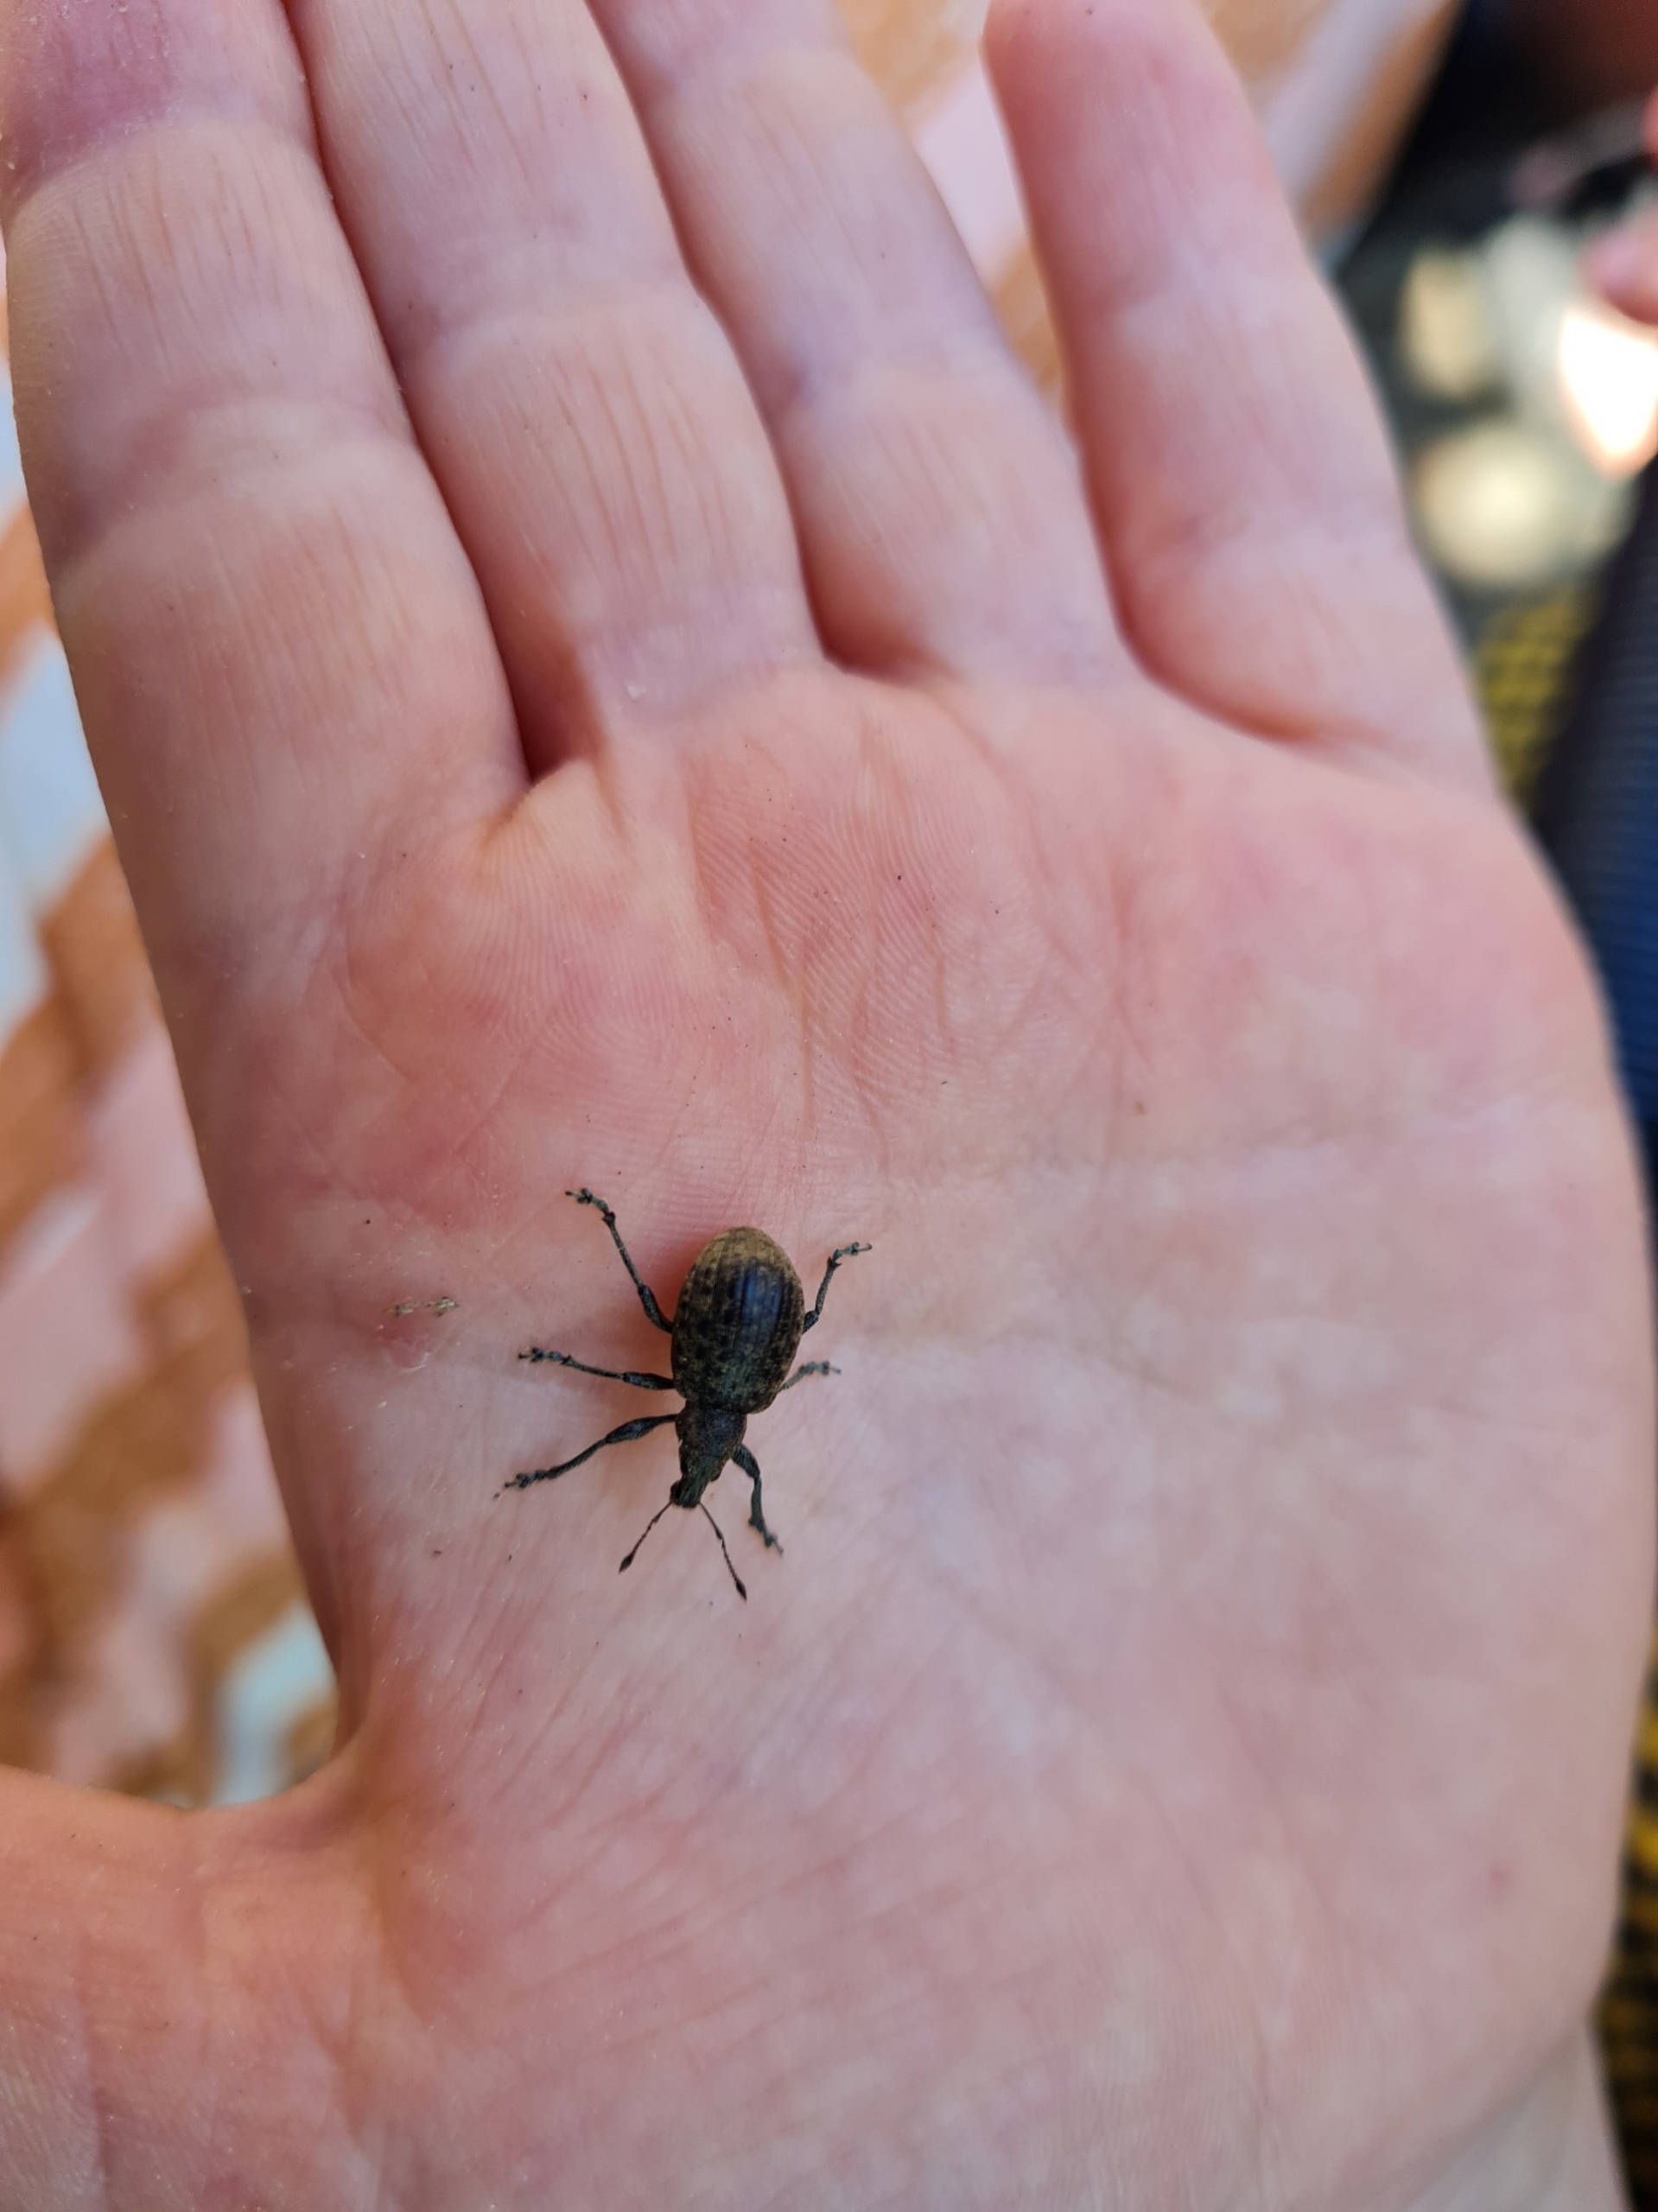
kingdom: Animalia
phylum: Arthropoda
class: Insecta
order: Coleoptera
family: Curculionidae
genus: Liophloeus
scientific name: Liophloeus tessulatus
